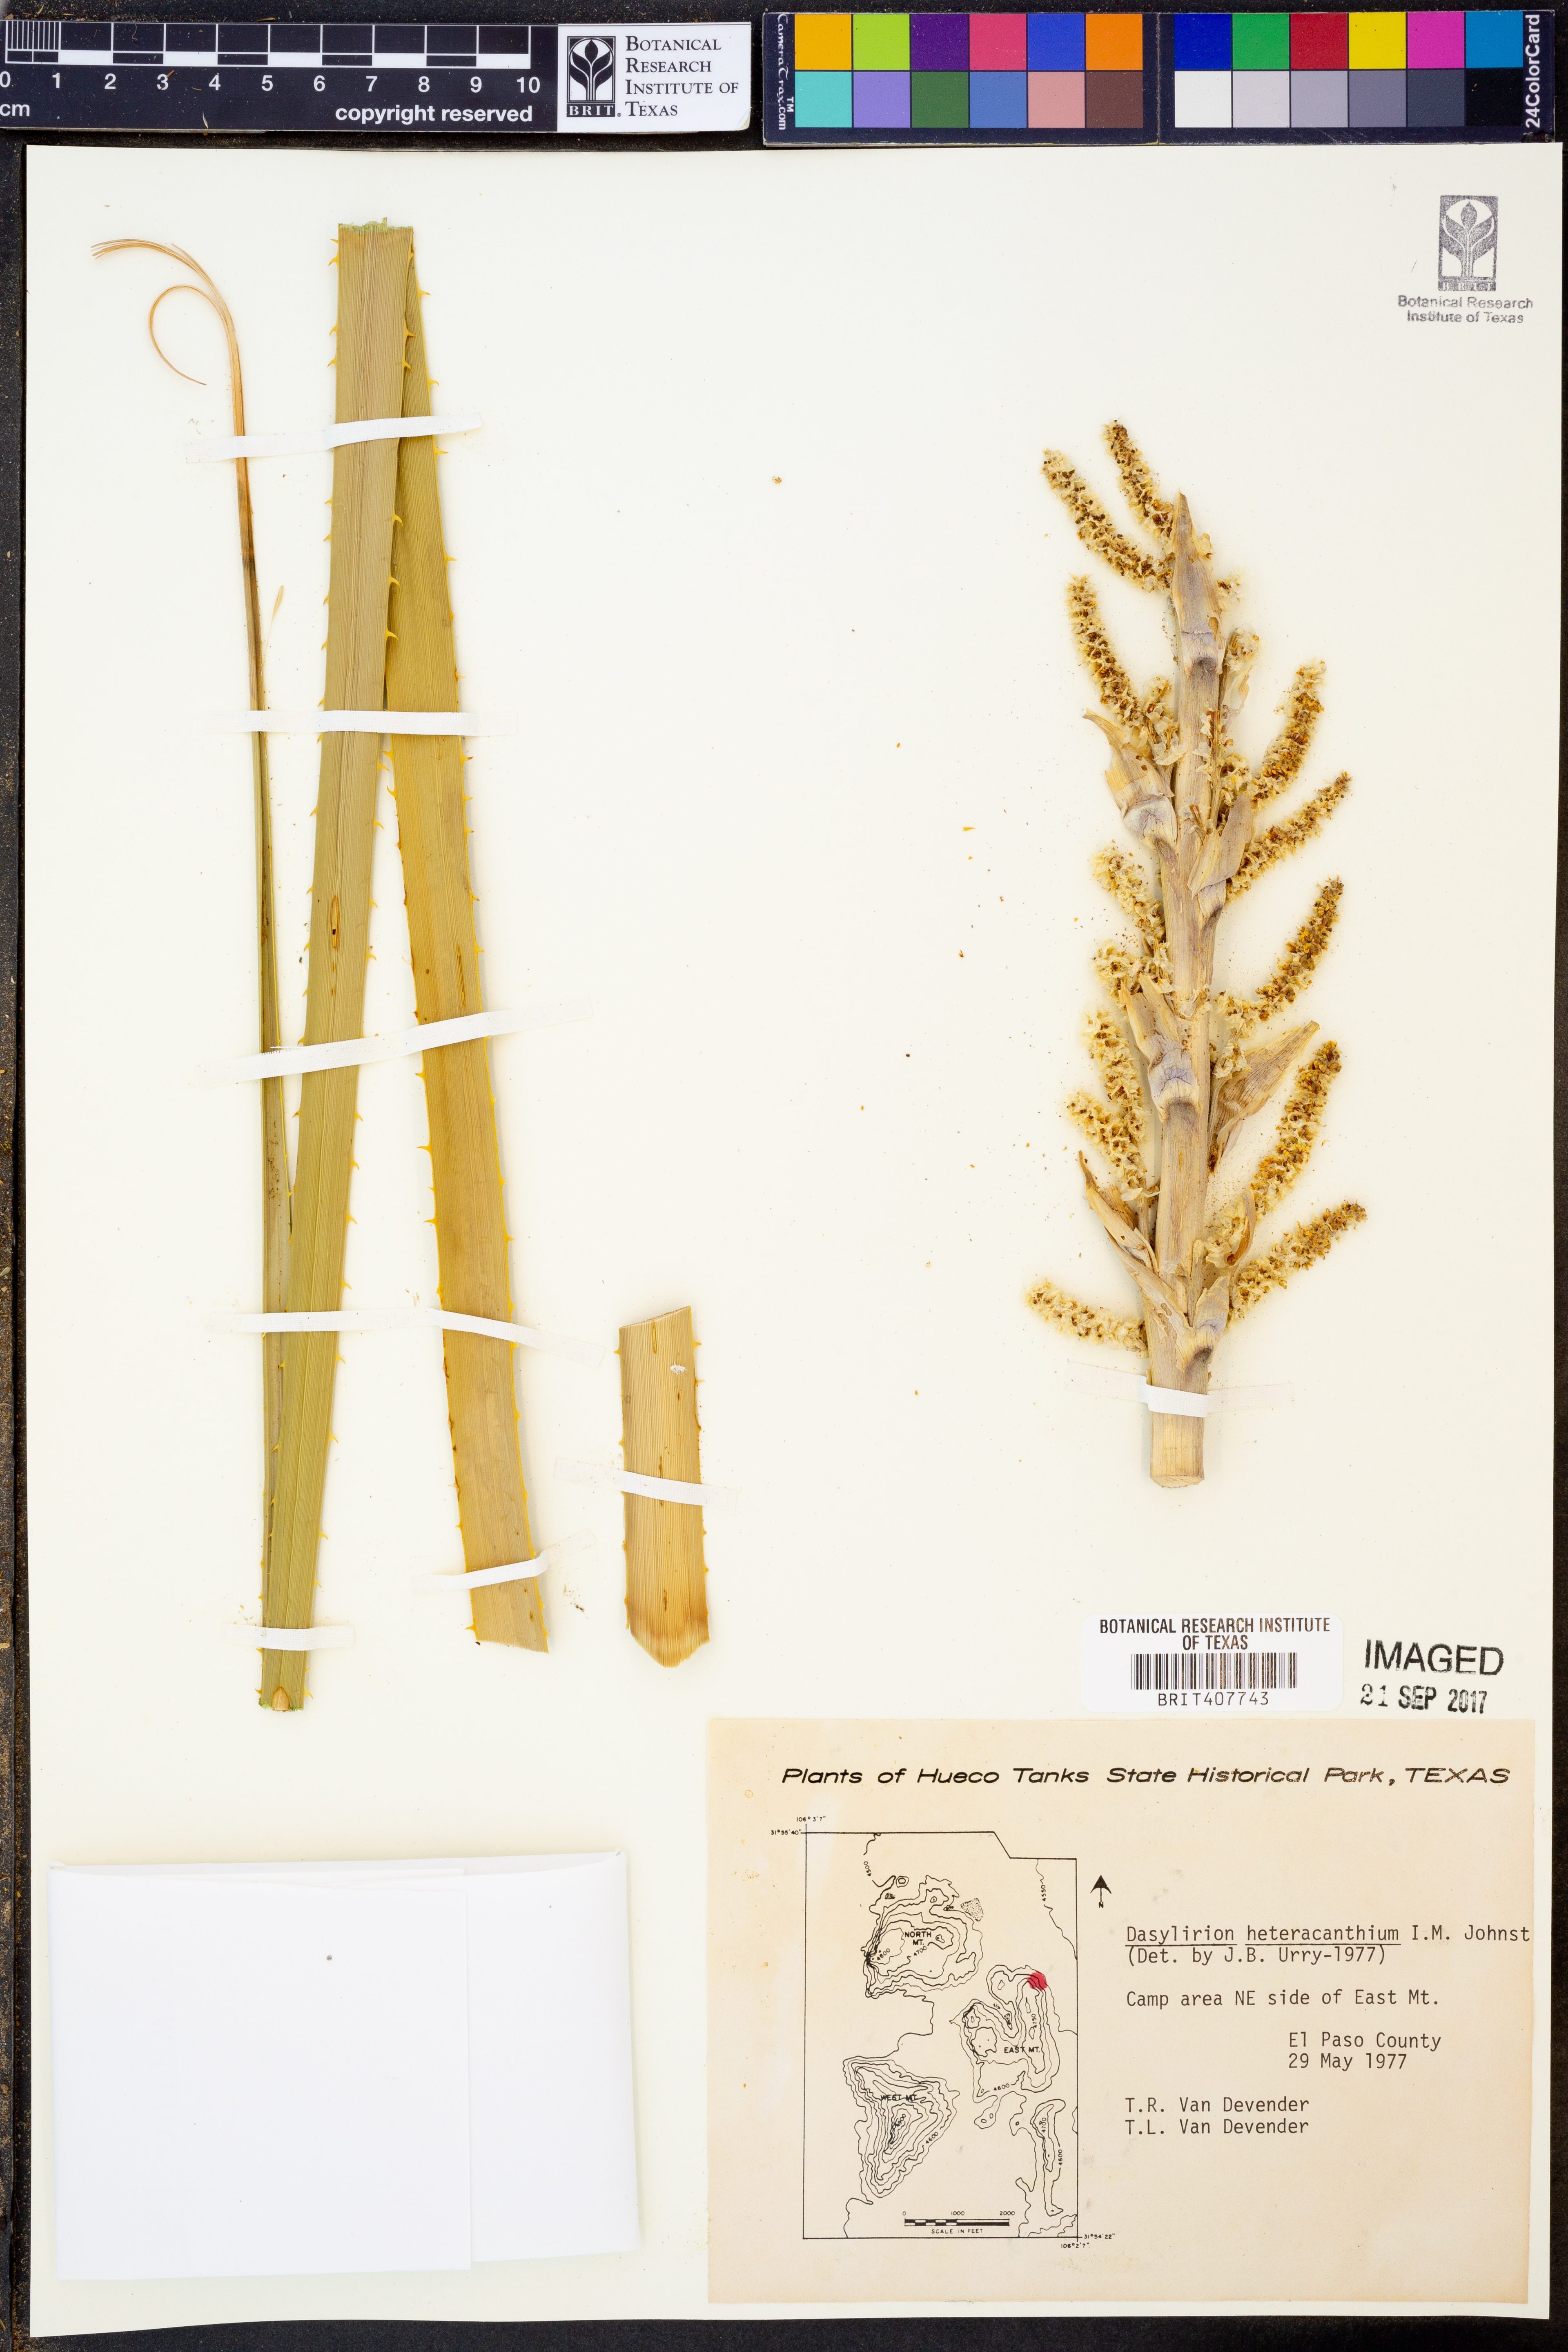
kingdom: Plantae
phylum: Tracheophyta
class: Liliopsida
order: Asparagales
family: Asparagaceae
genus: Dasylirion
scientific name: Dasylirion leiophyllum
